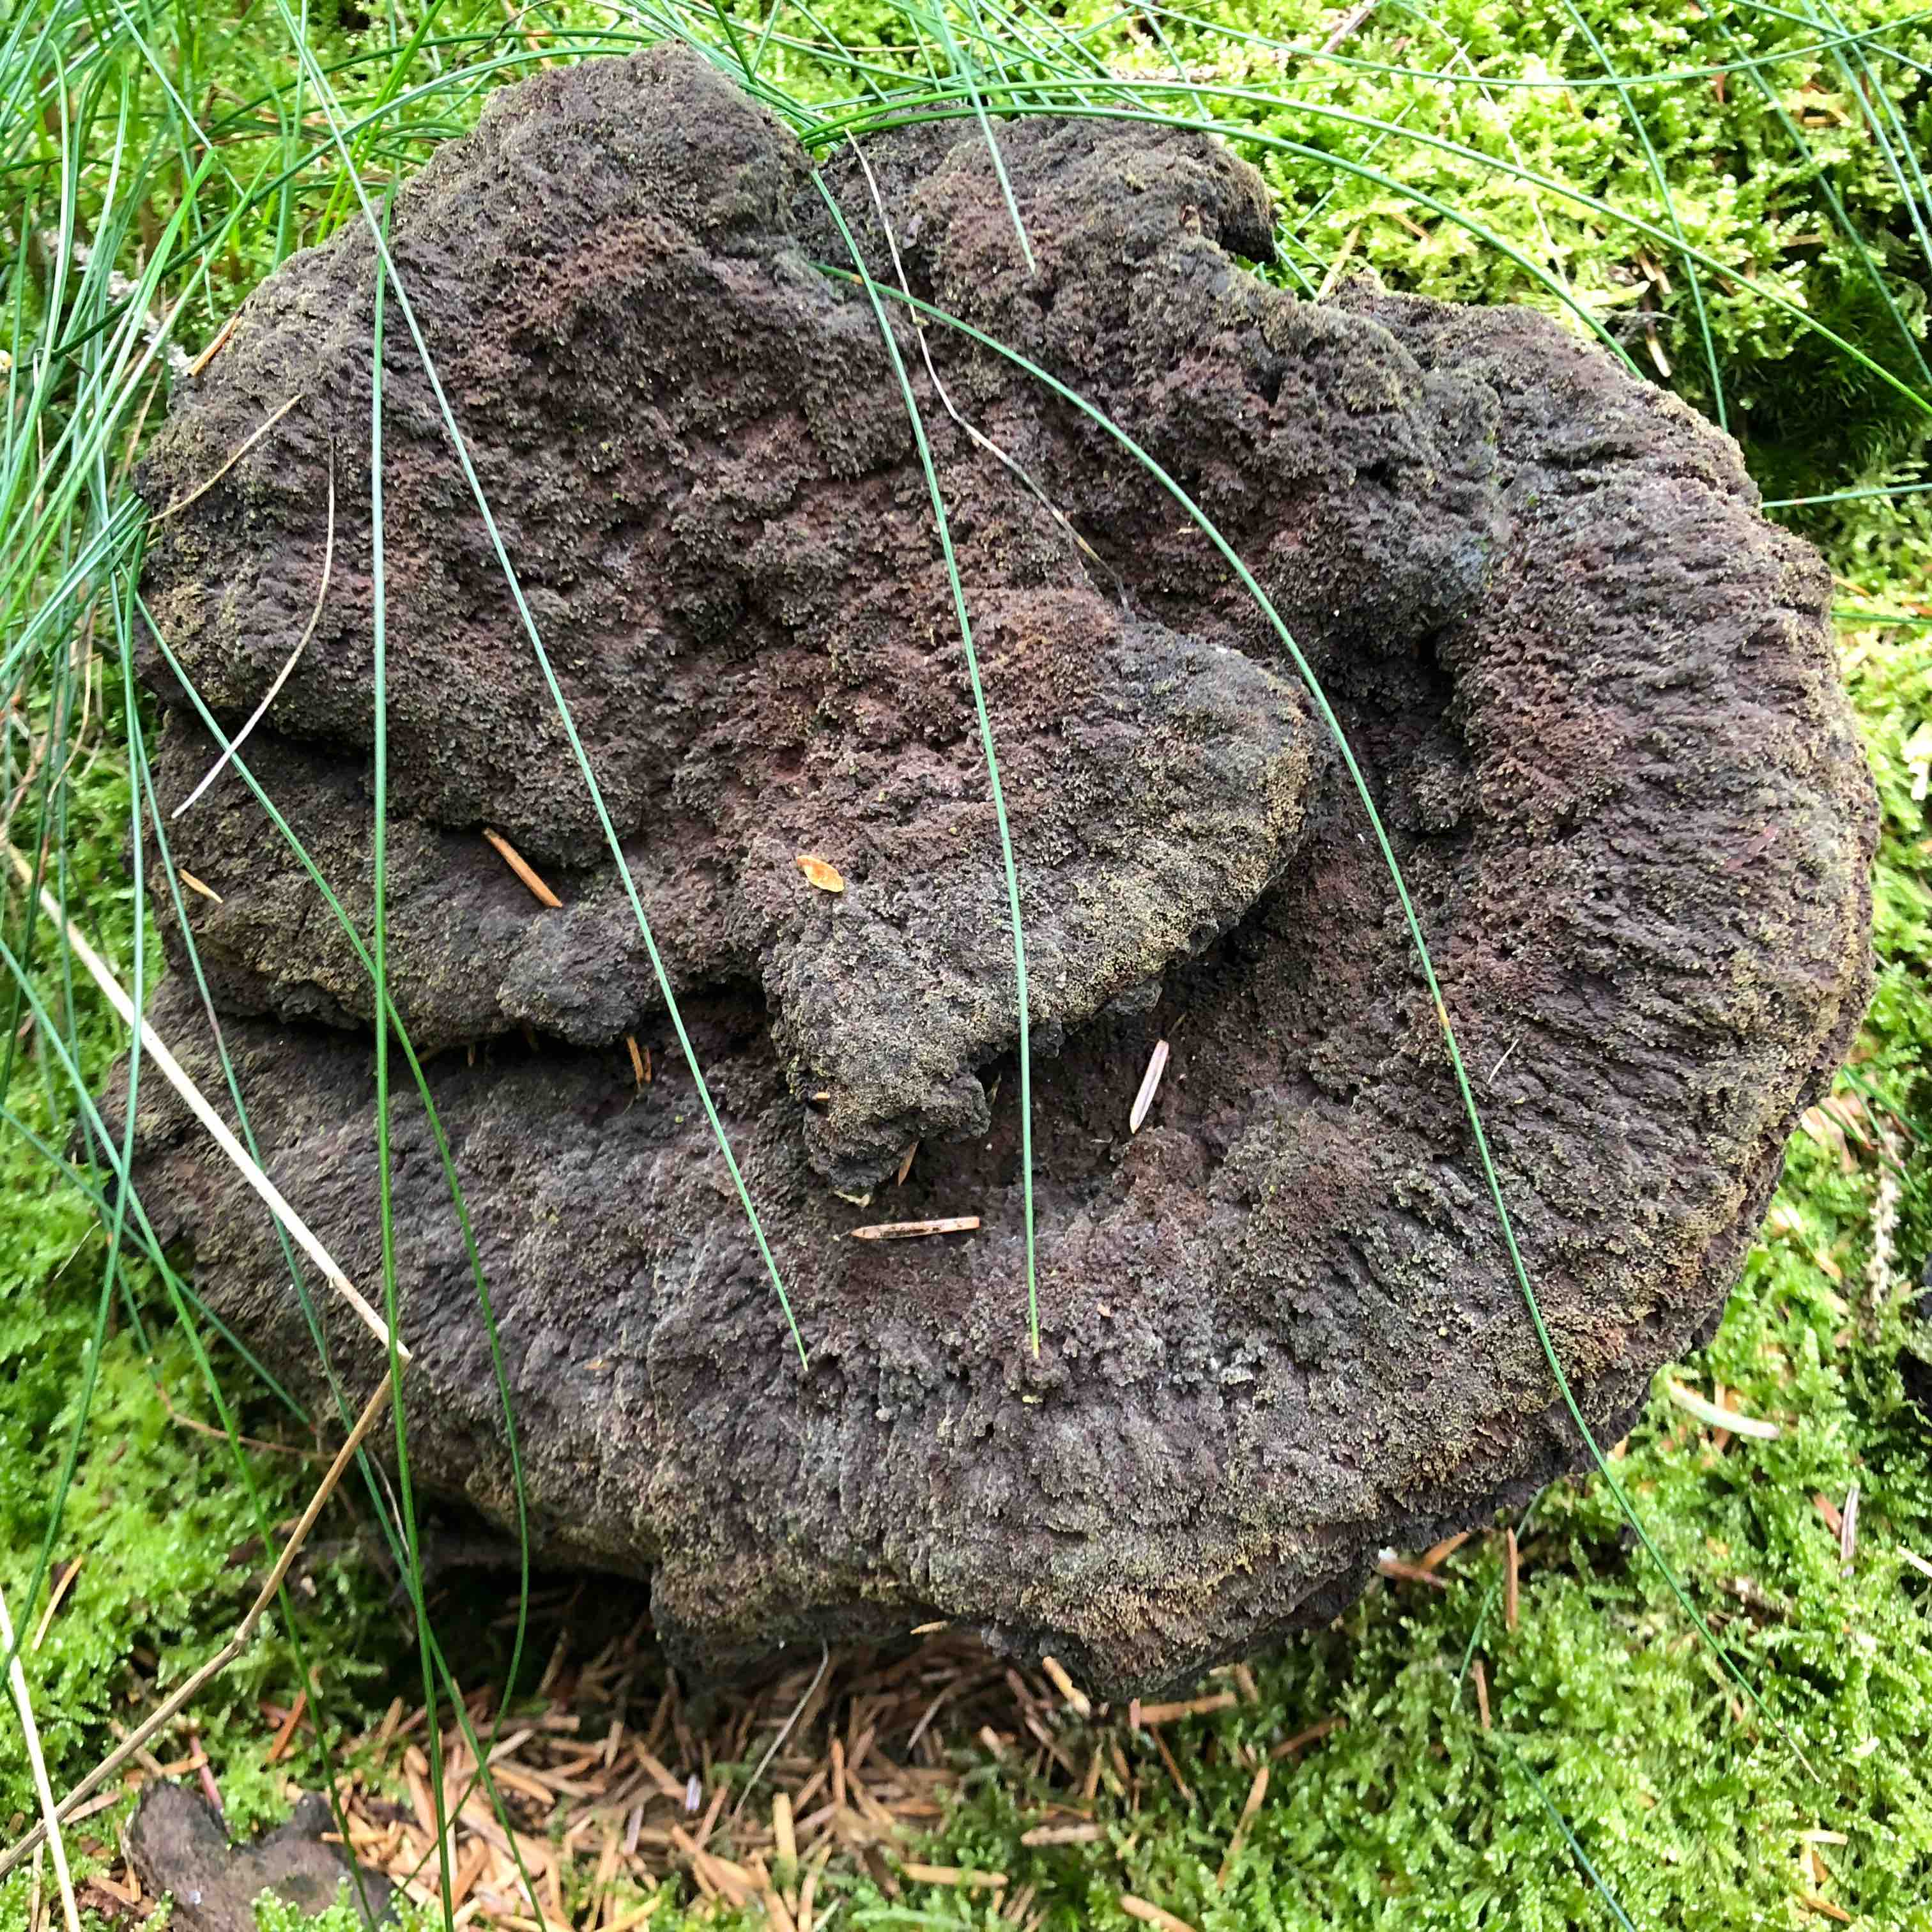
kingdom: Fungi
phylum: Basidiomycota
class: Agaricomycetes
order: Polyporales
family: Laetiporaceae
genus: Phaeolus
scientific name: Phaeolus schweinitzii
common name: brunporesvamp
